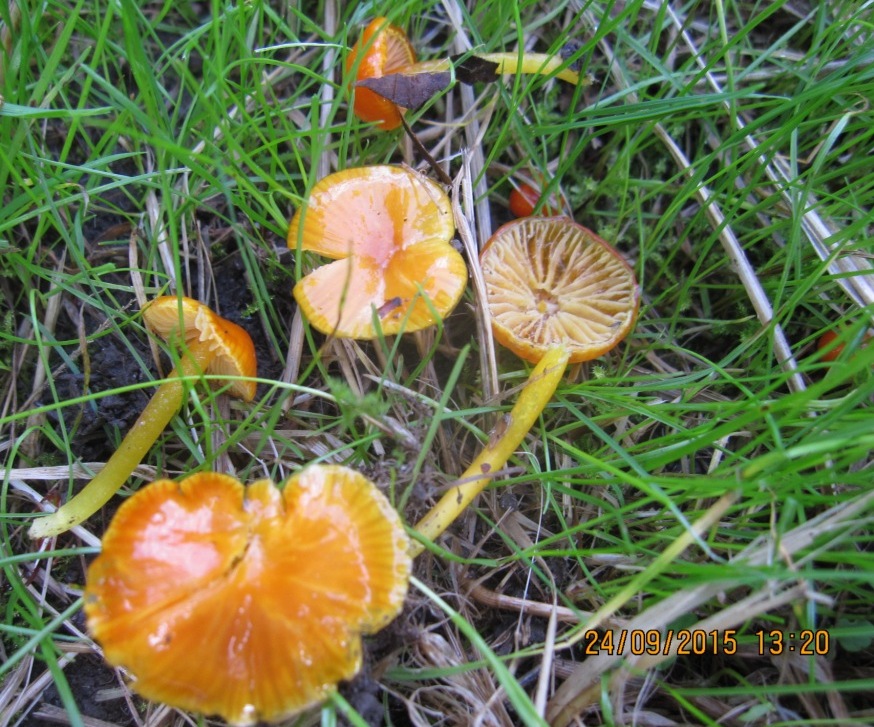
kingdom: Fungi
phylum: Basidiomycota
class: Agaricomycetes
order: Agaricales
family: Hygrophoraceae
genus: Hygrocybe
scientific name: Hygrocybe glutinipes
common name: slimstokket vokshat
